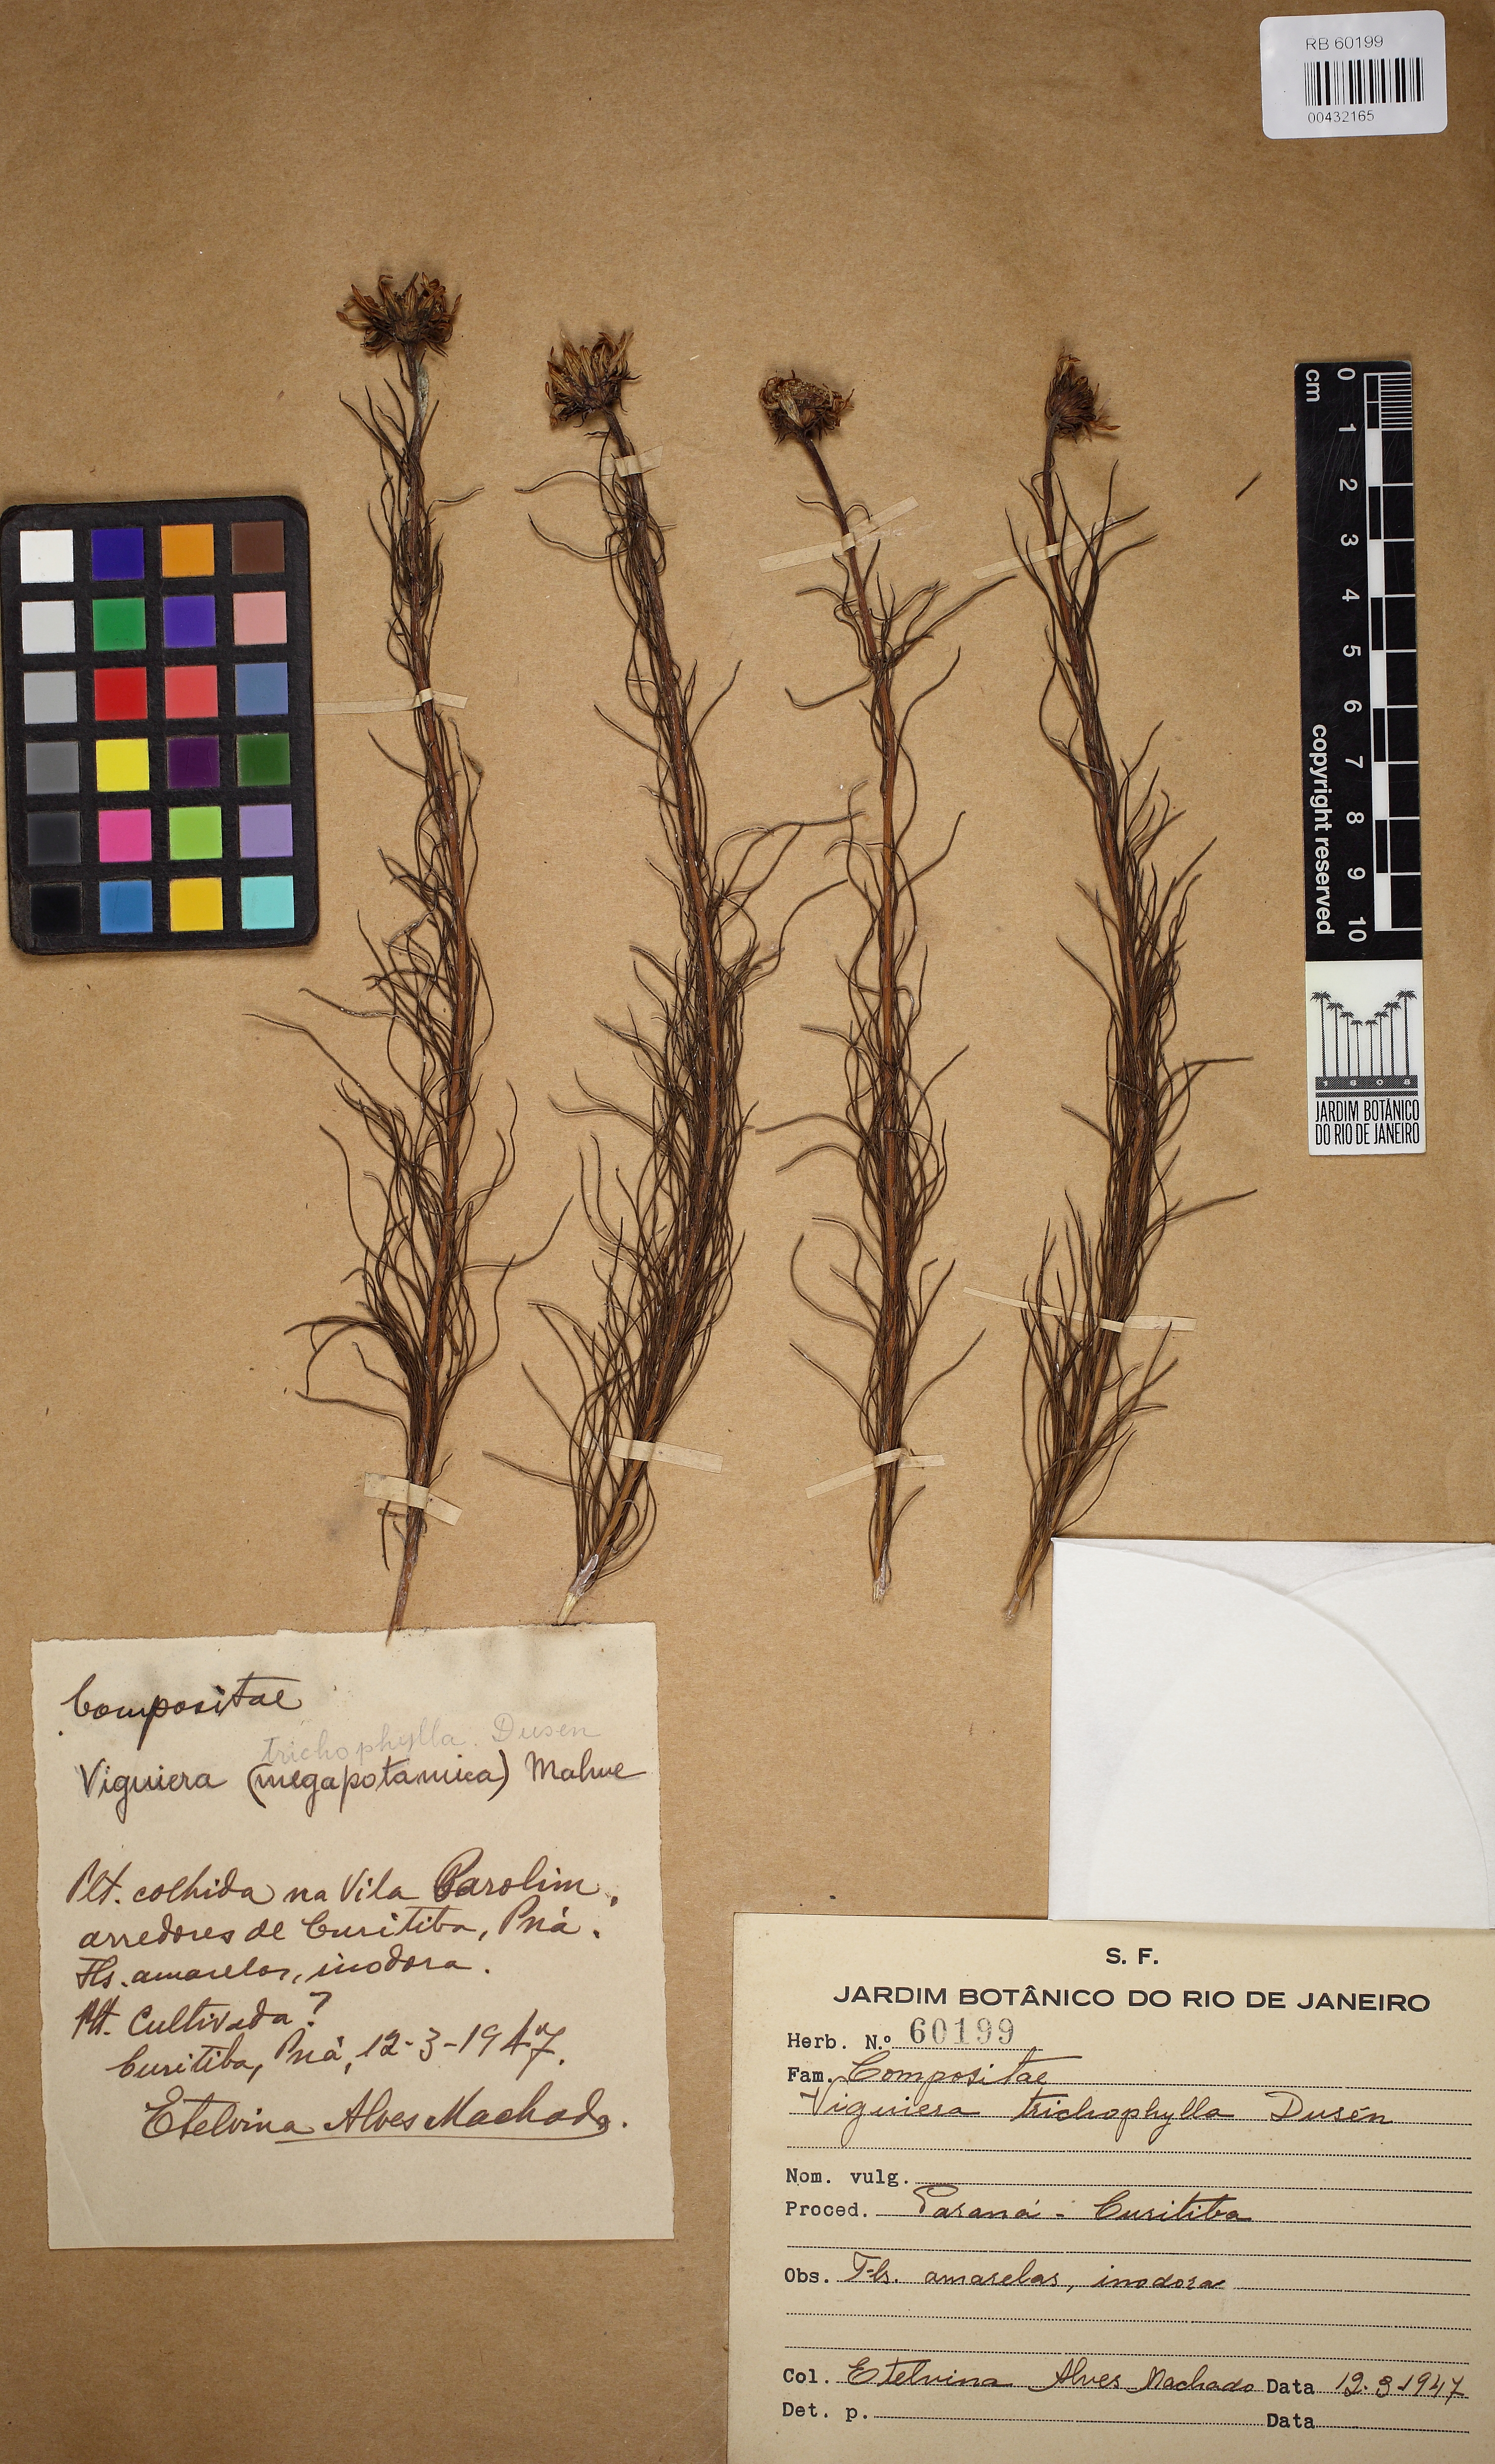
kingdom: Plantae
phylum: Tracheophyta
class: Magnoliopsida
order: Asterales
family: Asteraceae
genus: Aldama
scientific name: Aldama trichophylla
